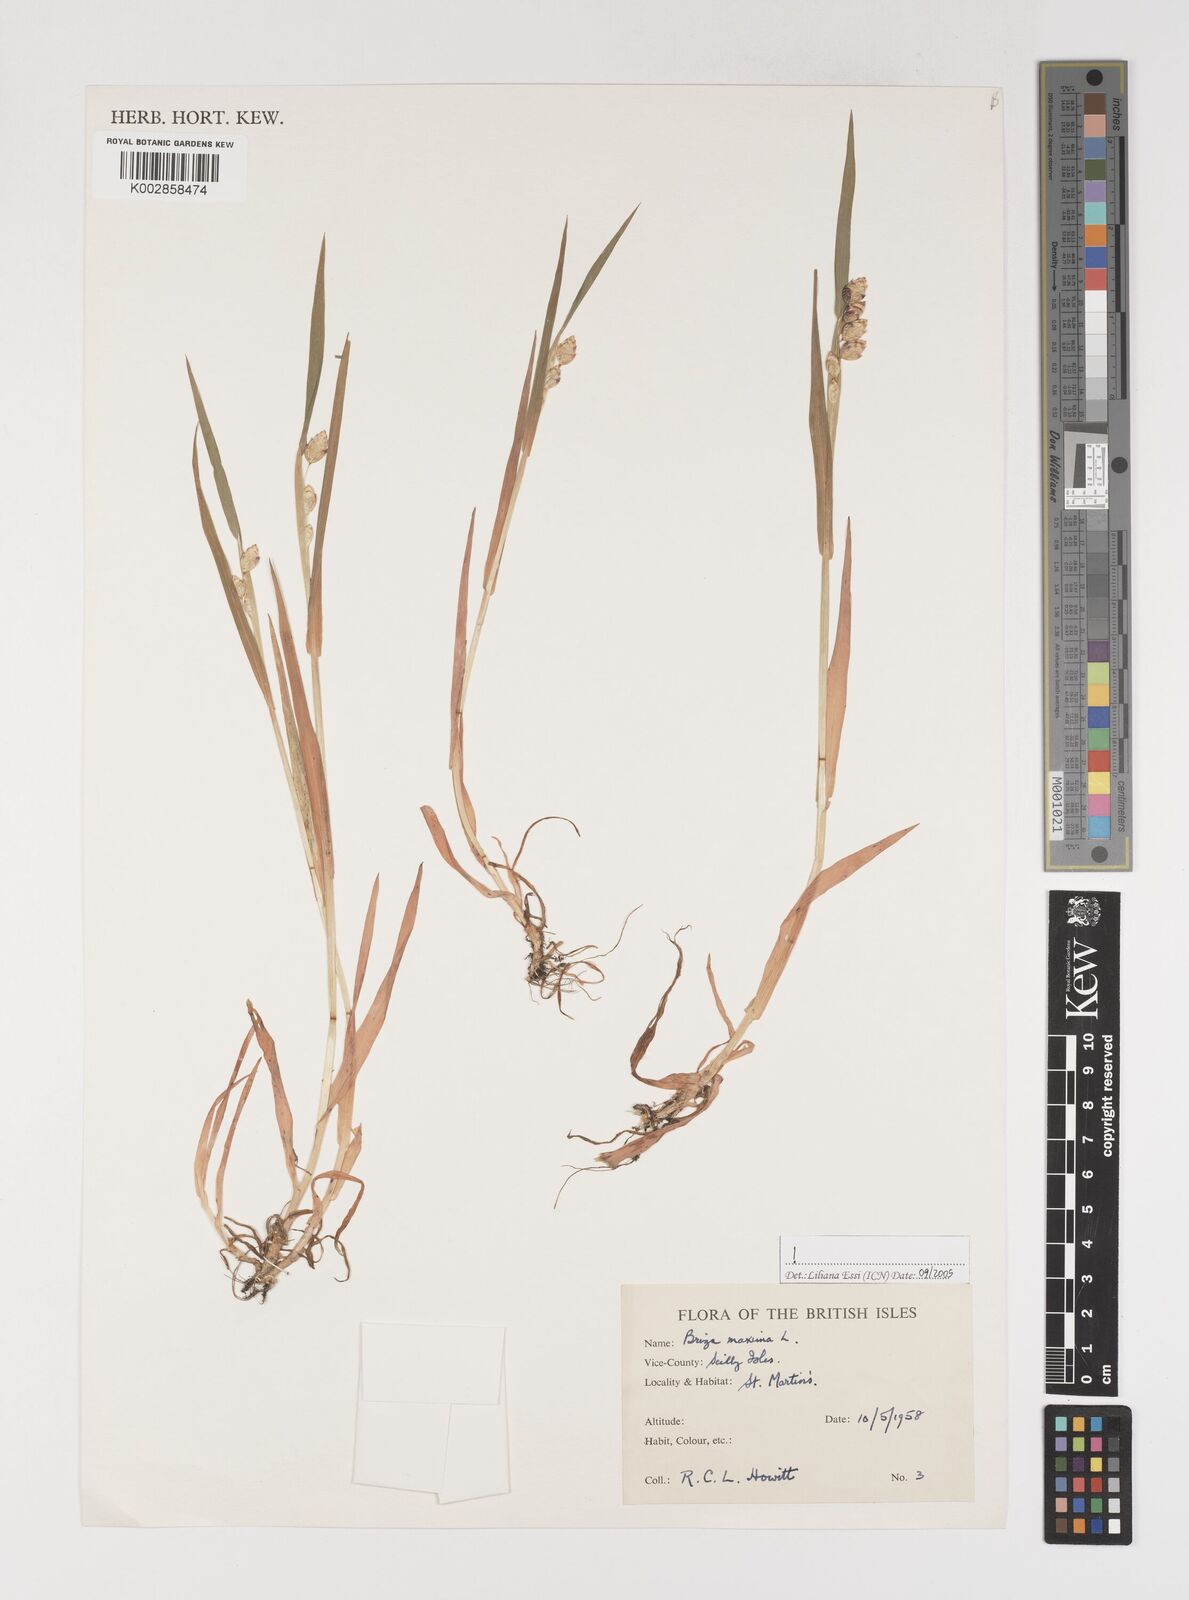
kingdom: Plantae
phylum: Tracheophyta
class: Liliopsida
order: Poales
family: Poaceae
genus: Briza
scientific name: Briza maxima
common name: Big quakinggrass
